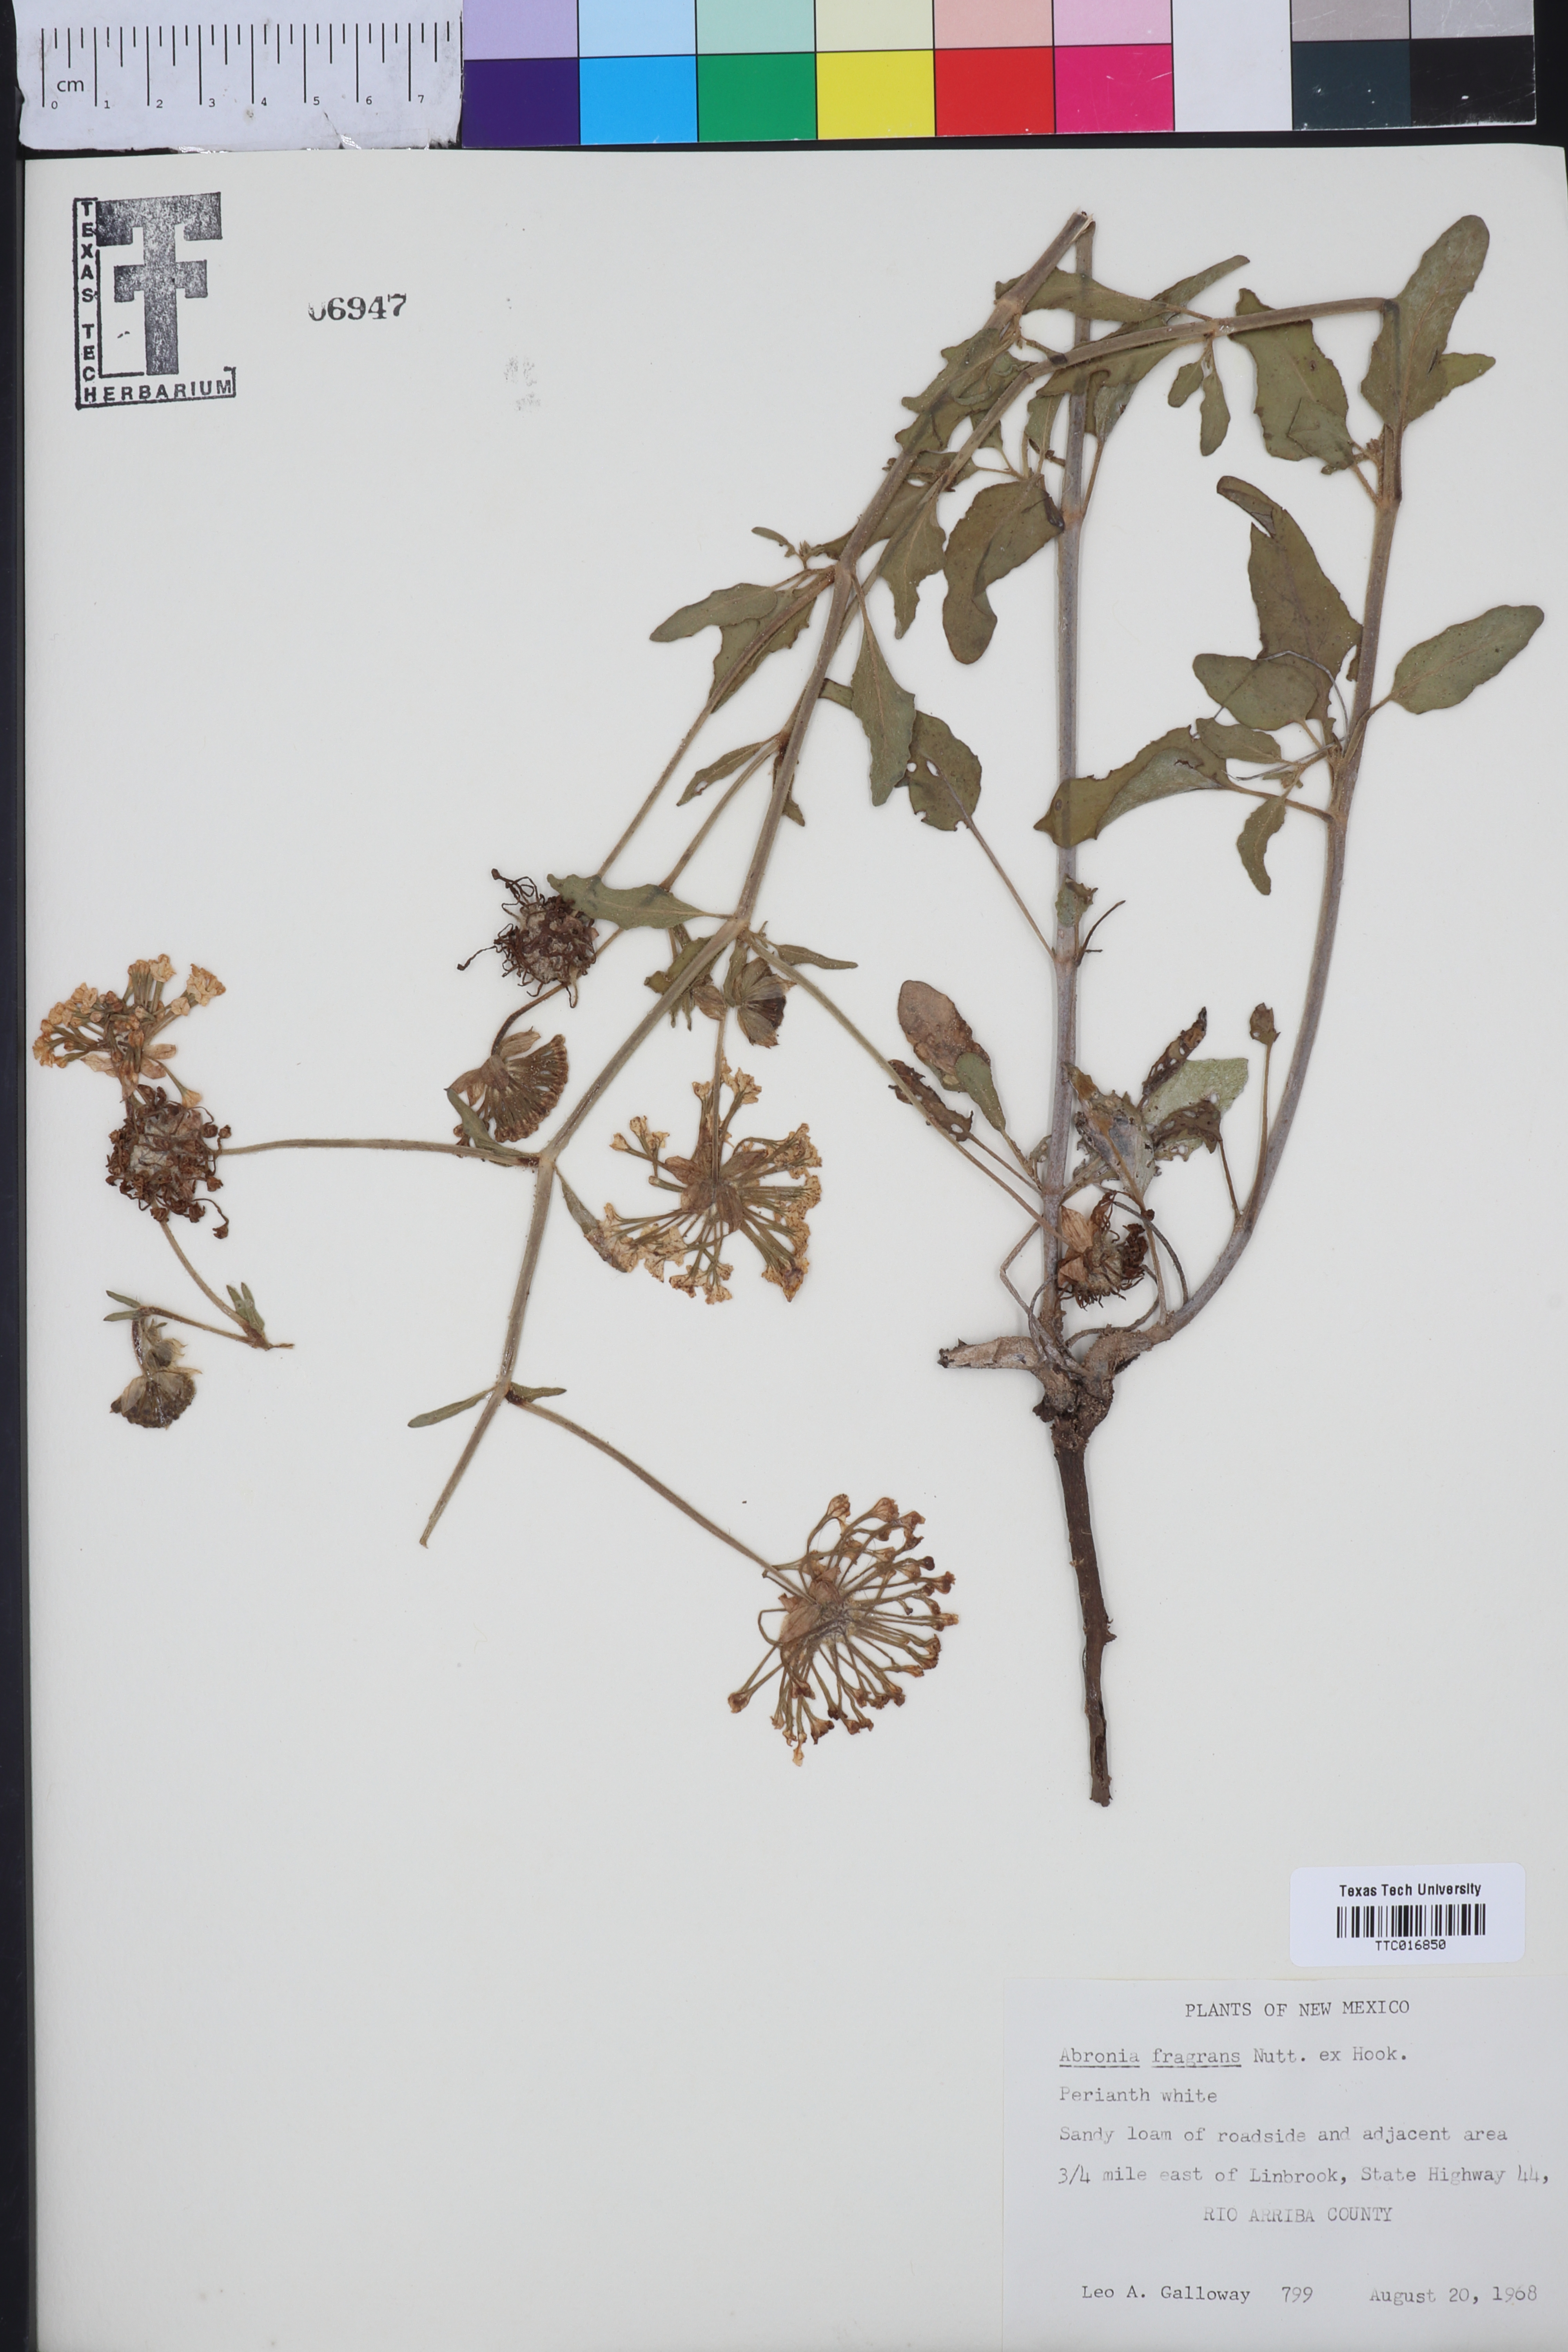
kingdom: Plantae
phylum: Tracheophyta
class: Magnoliopsida
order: Caryophyllales
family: Nyctaginaceae
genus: Abronia
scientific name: Abronia fragrans
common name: Fragrant sand-verbena
